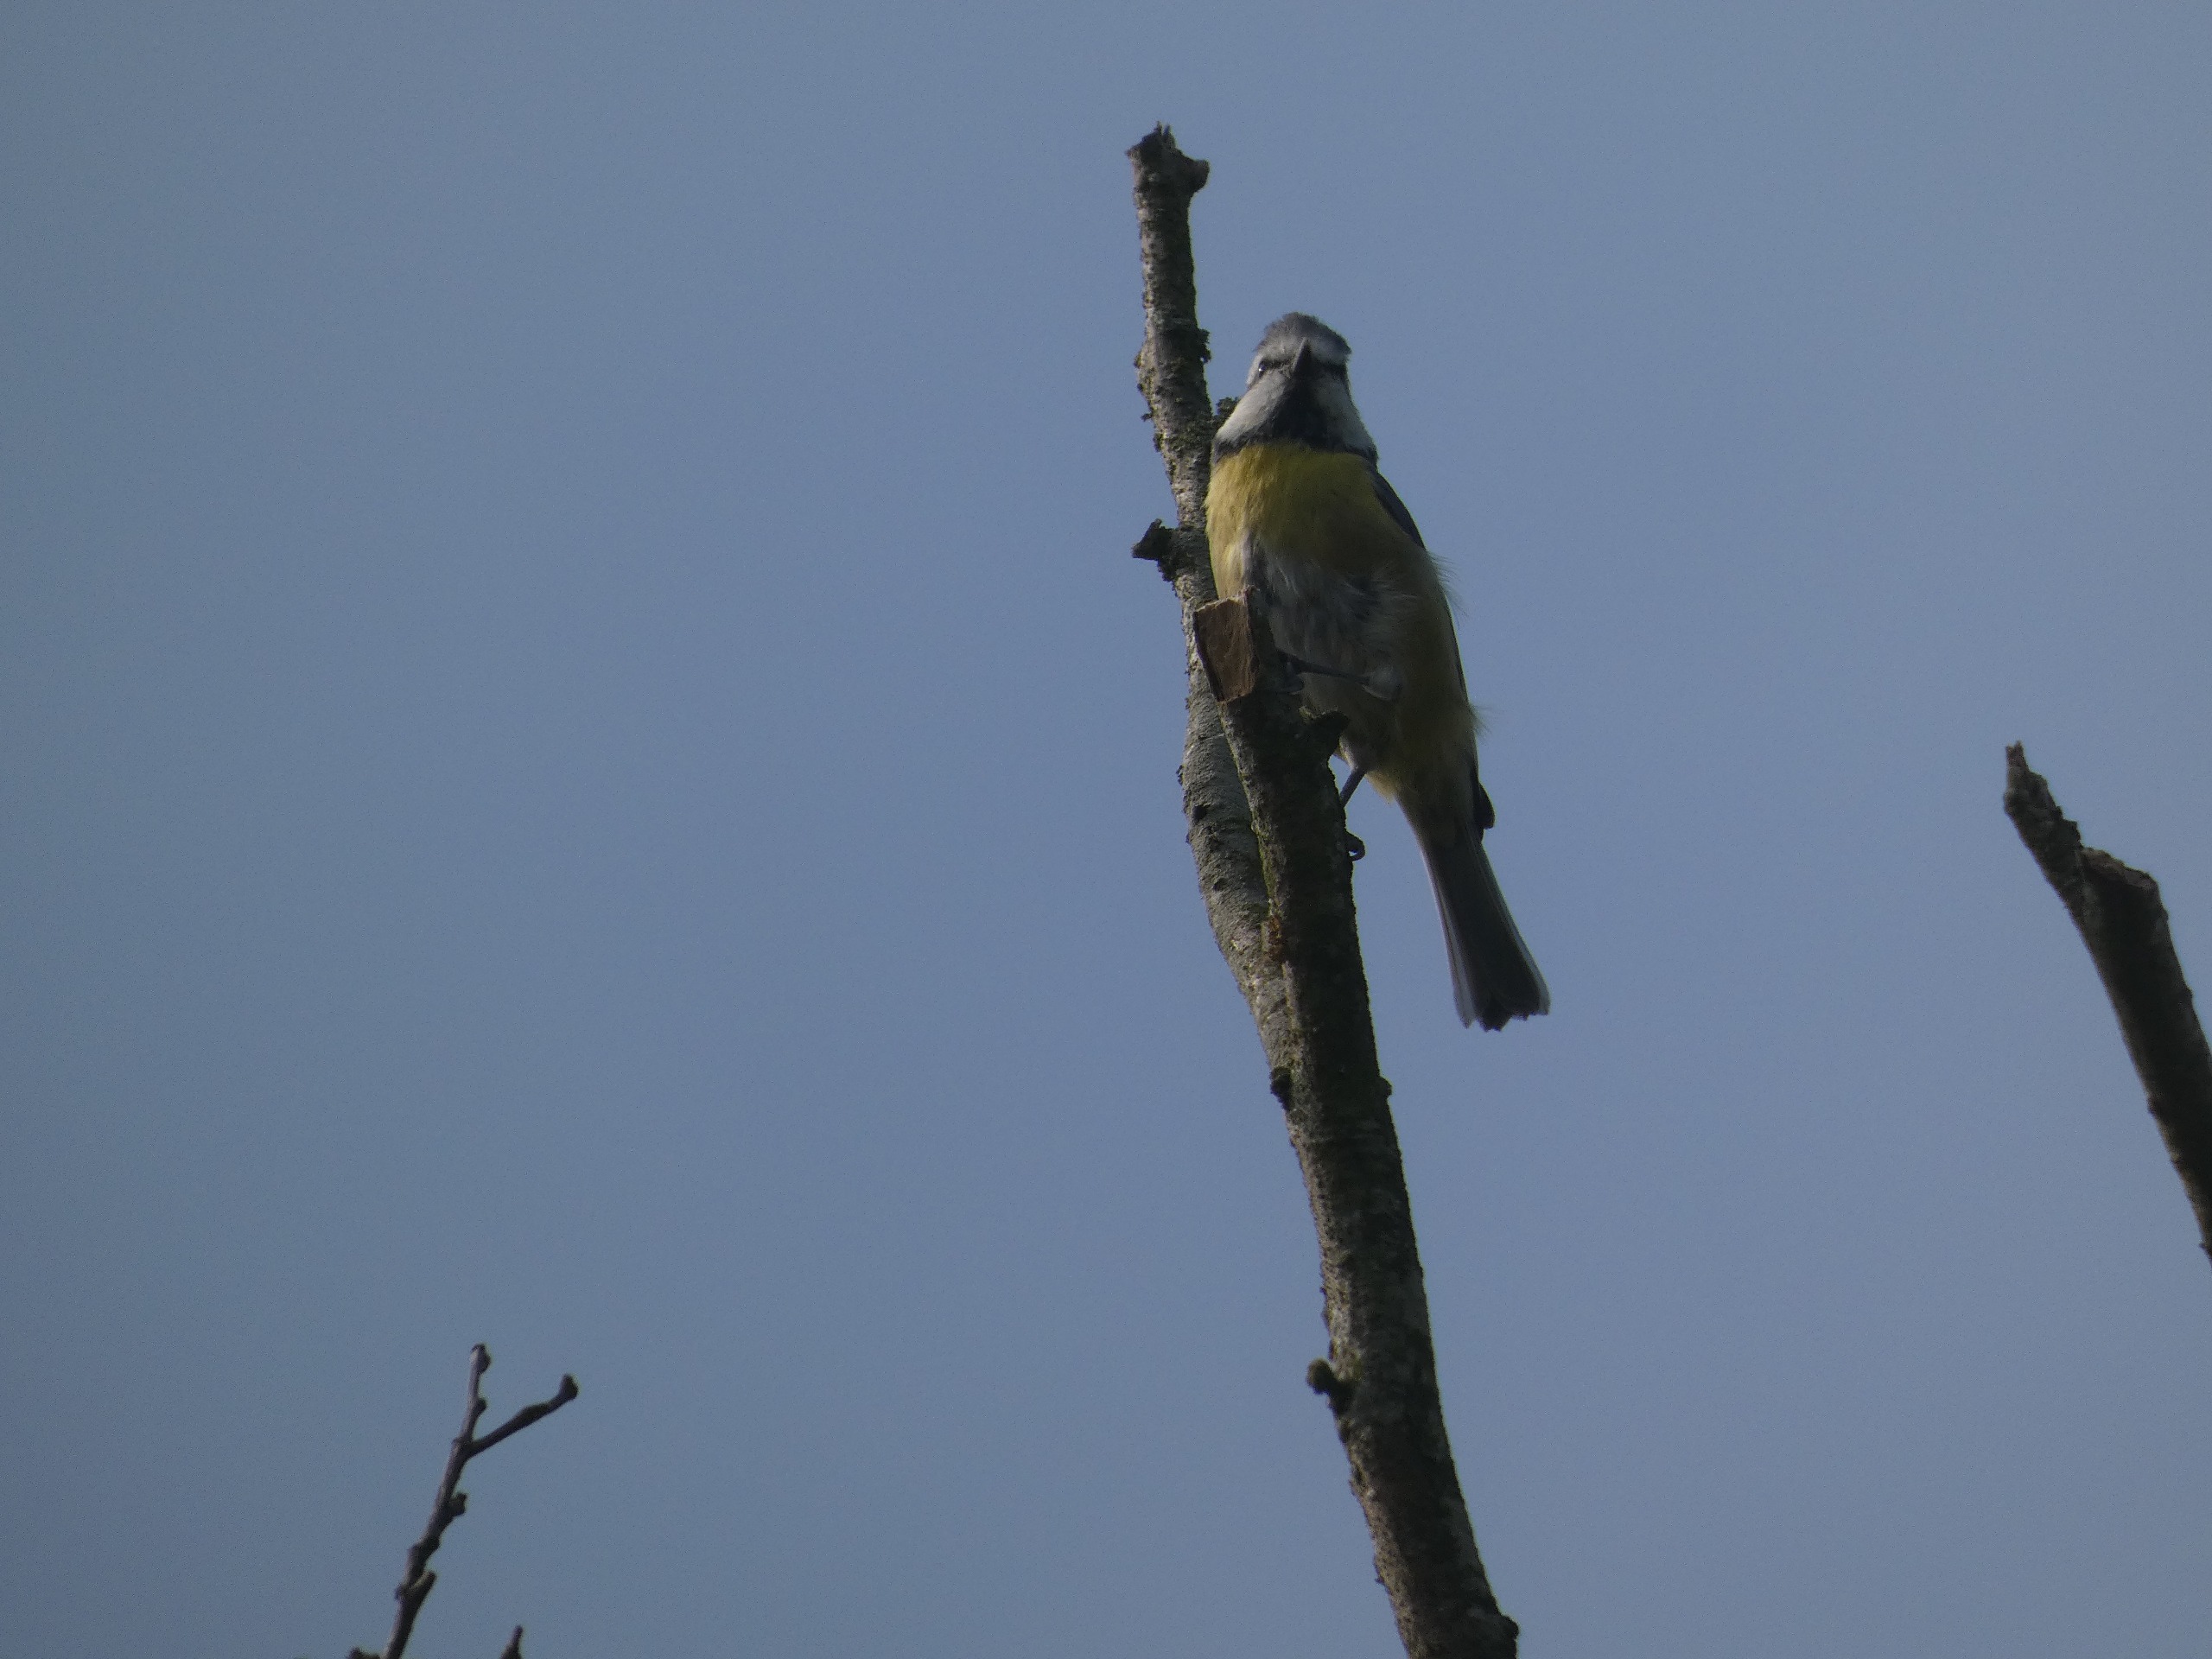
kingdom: Animalia
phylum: Chordata
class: Aves
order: Passeriformes
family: Paridae
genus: Cyanistes
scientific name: Cyanistes caeruleus
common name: Blåmejse
